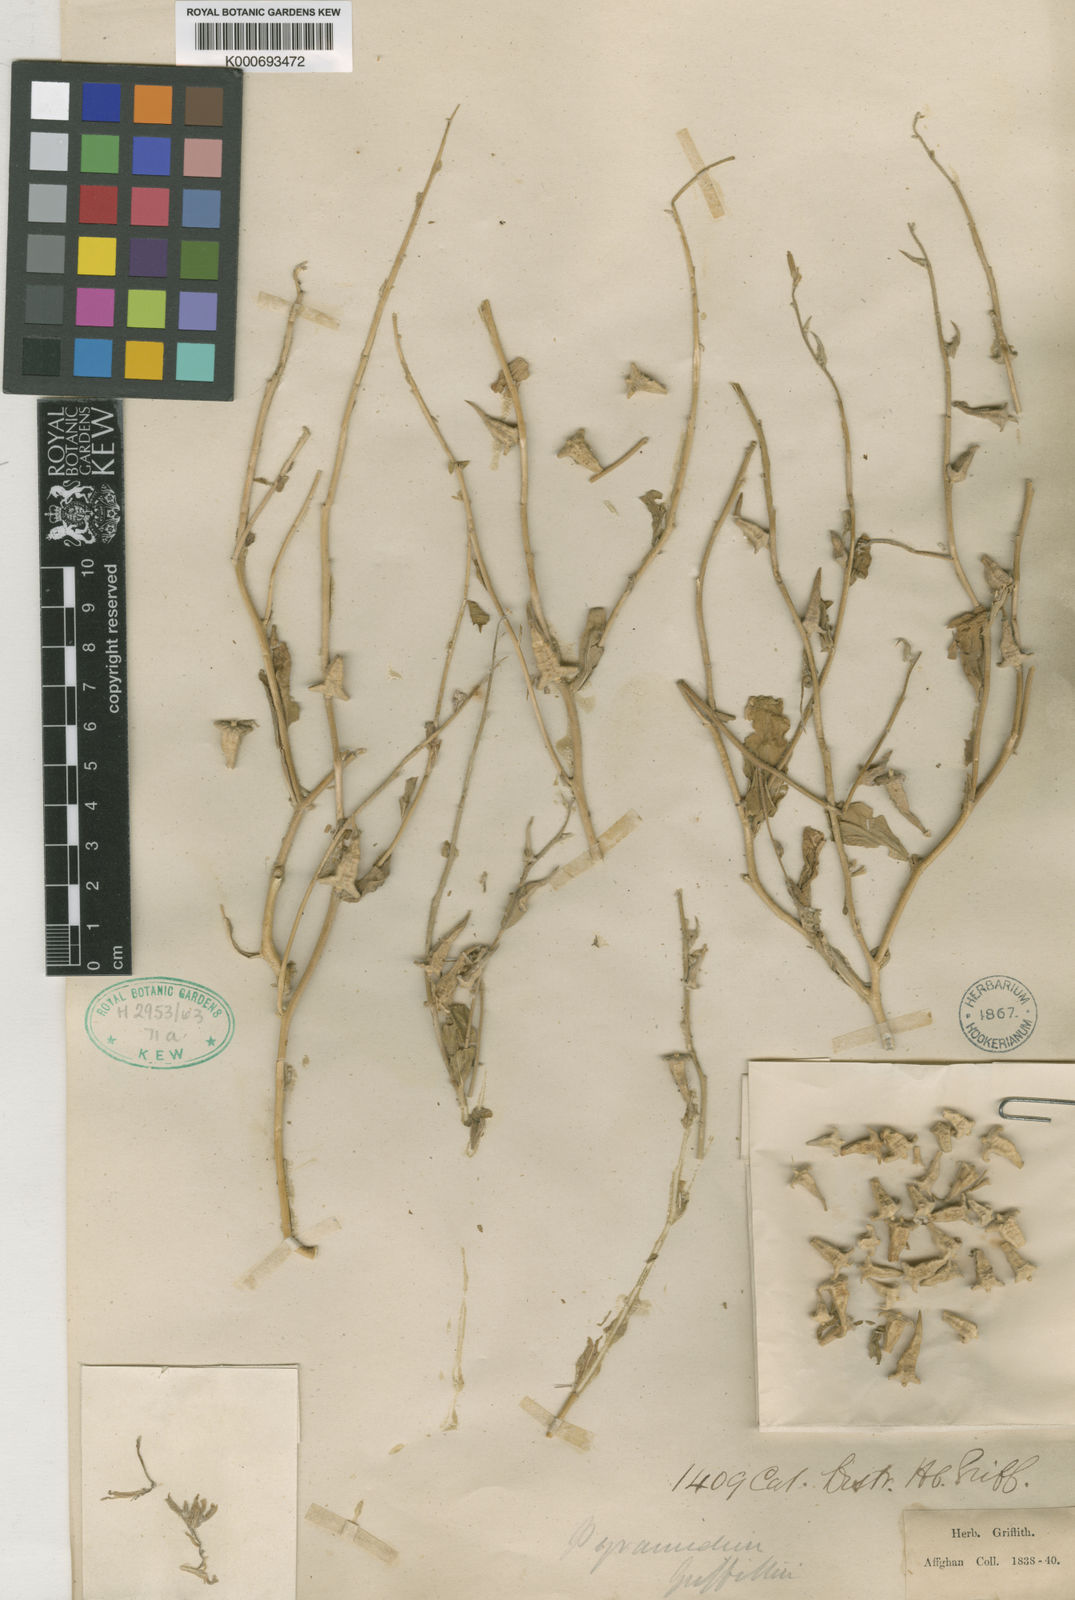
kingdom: Plantae
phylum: Tracheophyta
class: Magnoliopsida
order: Brassicales
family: Brassicaceae
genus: Veselskya
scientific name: Veselskya griffithiana
